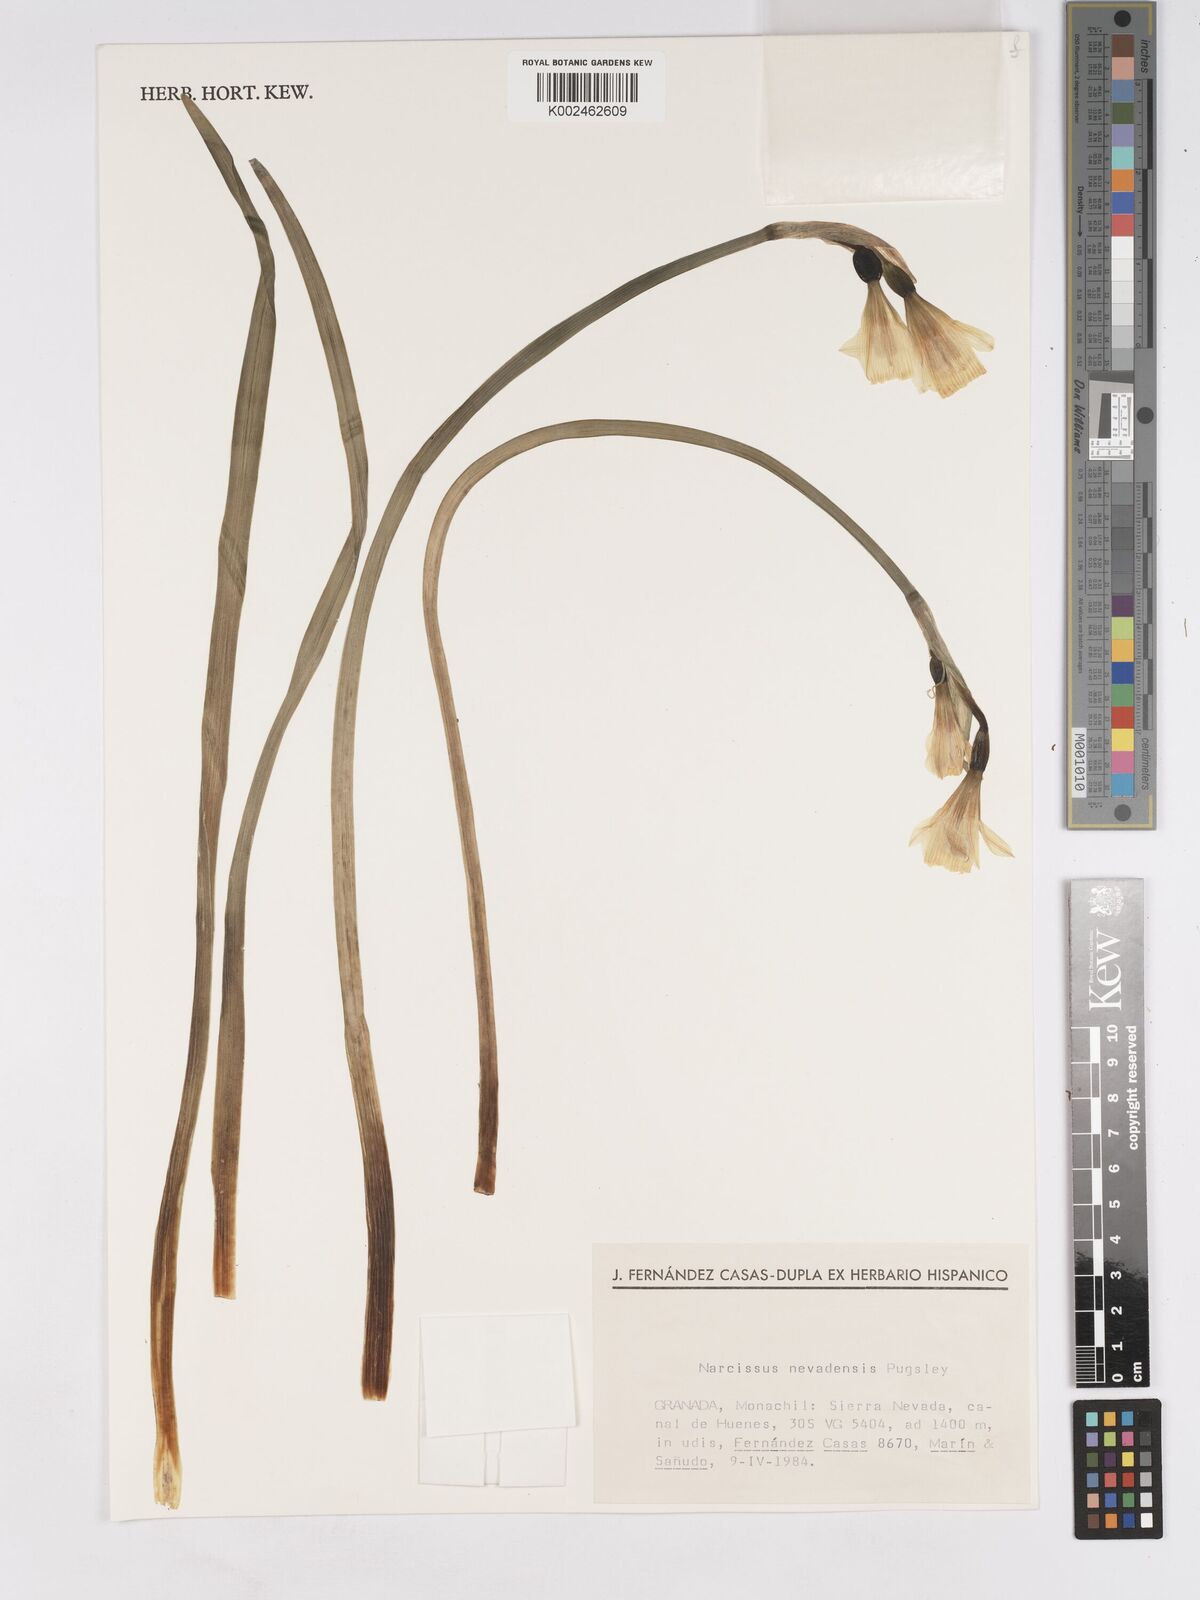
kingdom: Plantae
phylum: Tracheophyta
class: Liliopsida
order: Asparagales
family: Amaryllidaceae
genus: Narcissus
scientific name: Narcissus nevadensis
